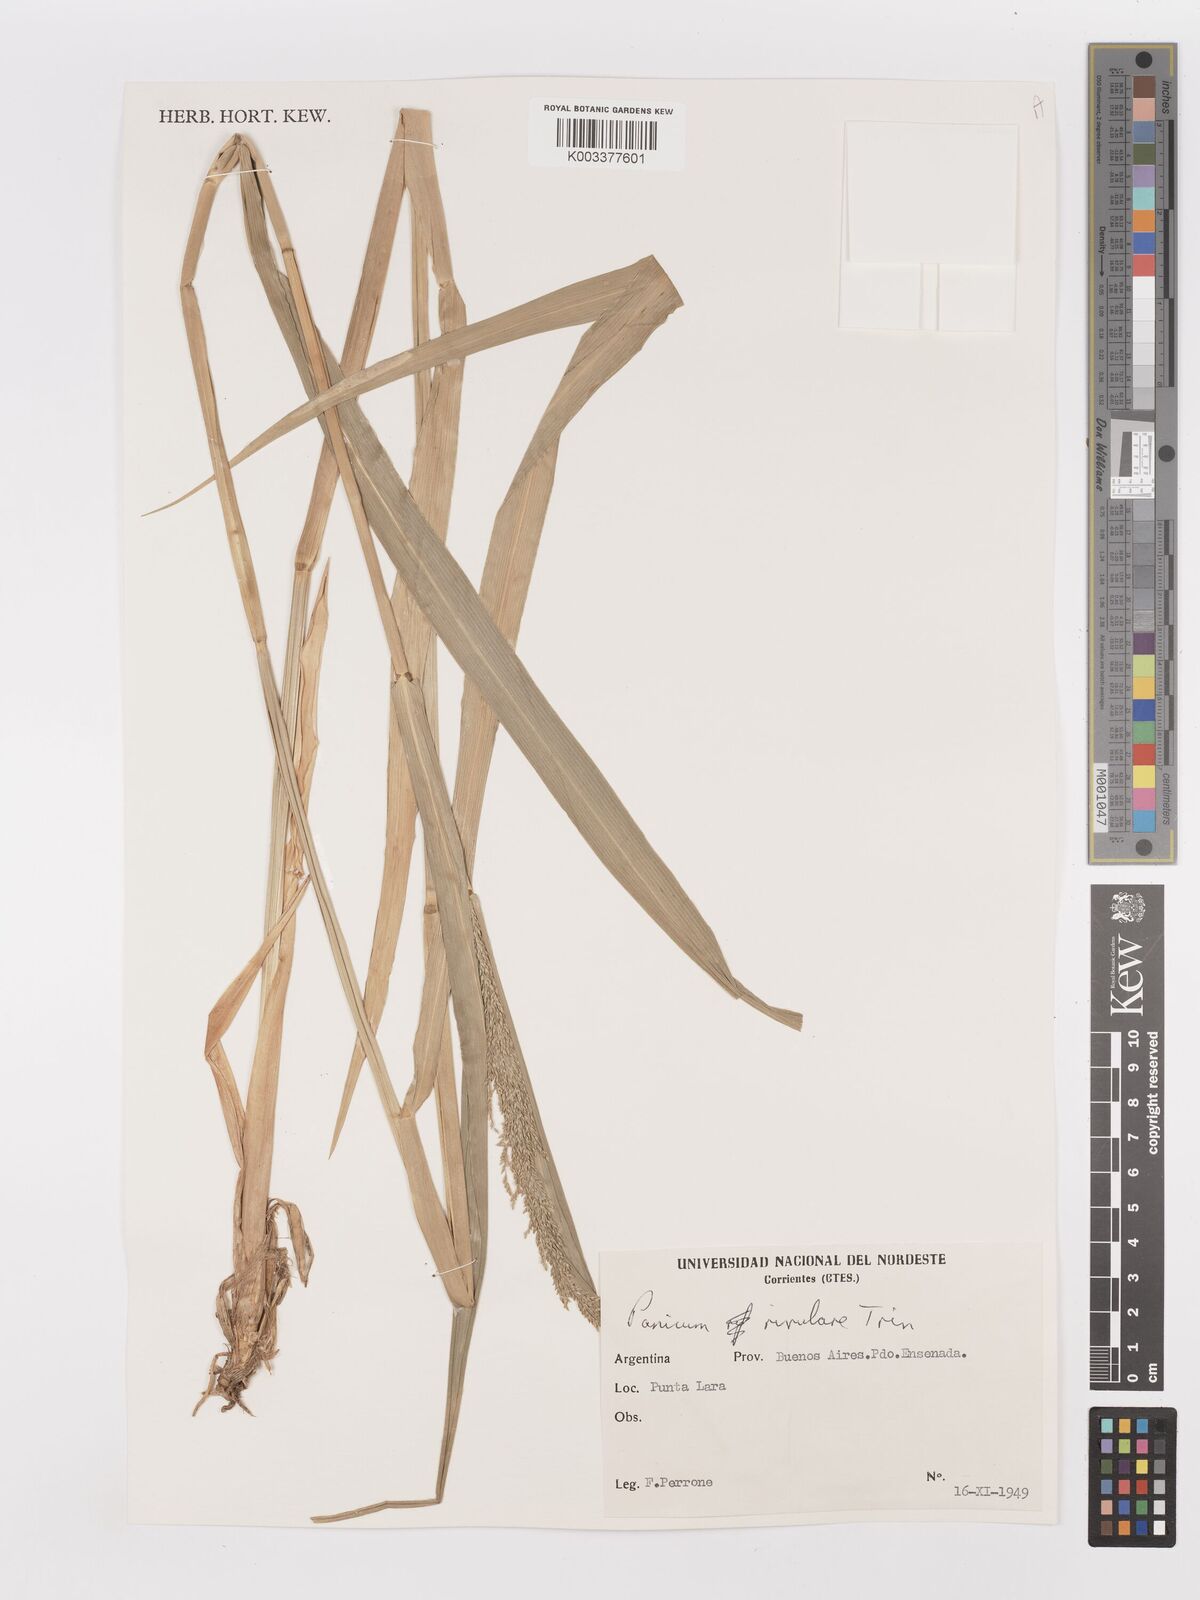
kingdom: Plantae
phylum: Tracheophyta
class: Liliopsida
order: Poales
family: Poaceae
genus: Hymenachne
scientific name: Hymenachne pernambucensis
